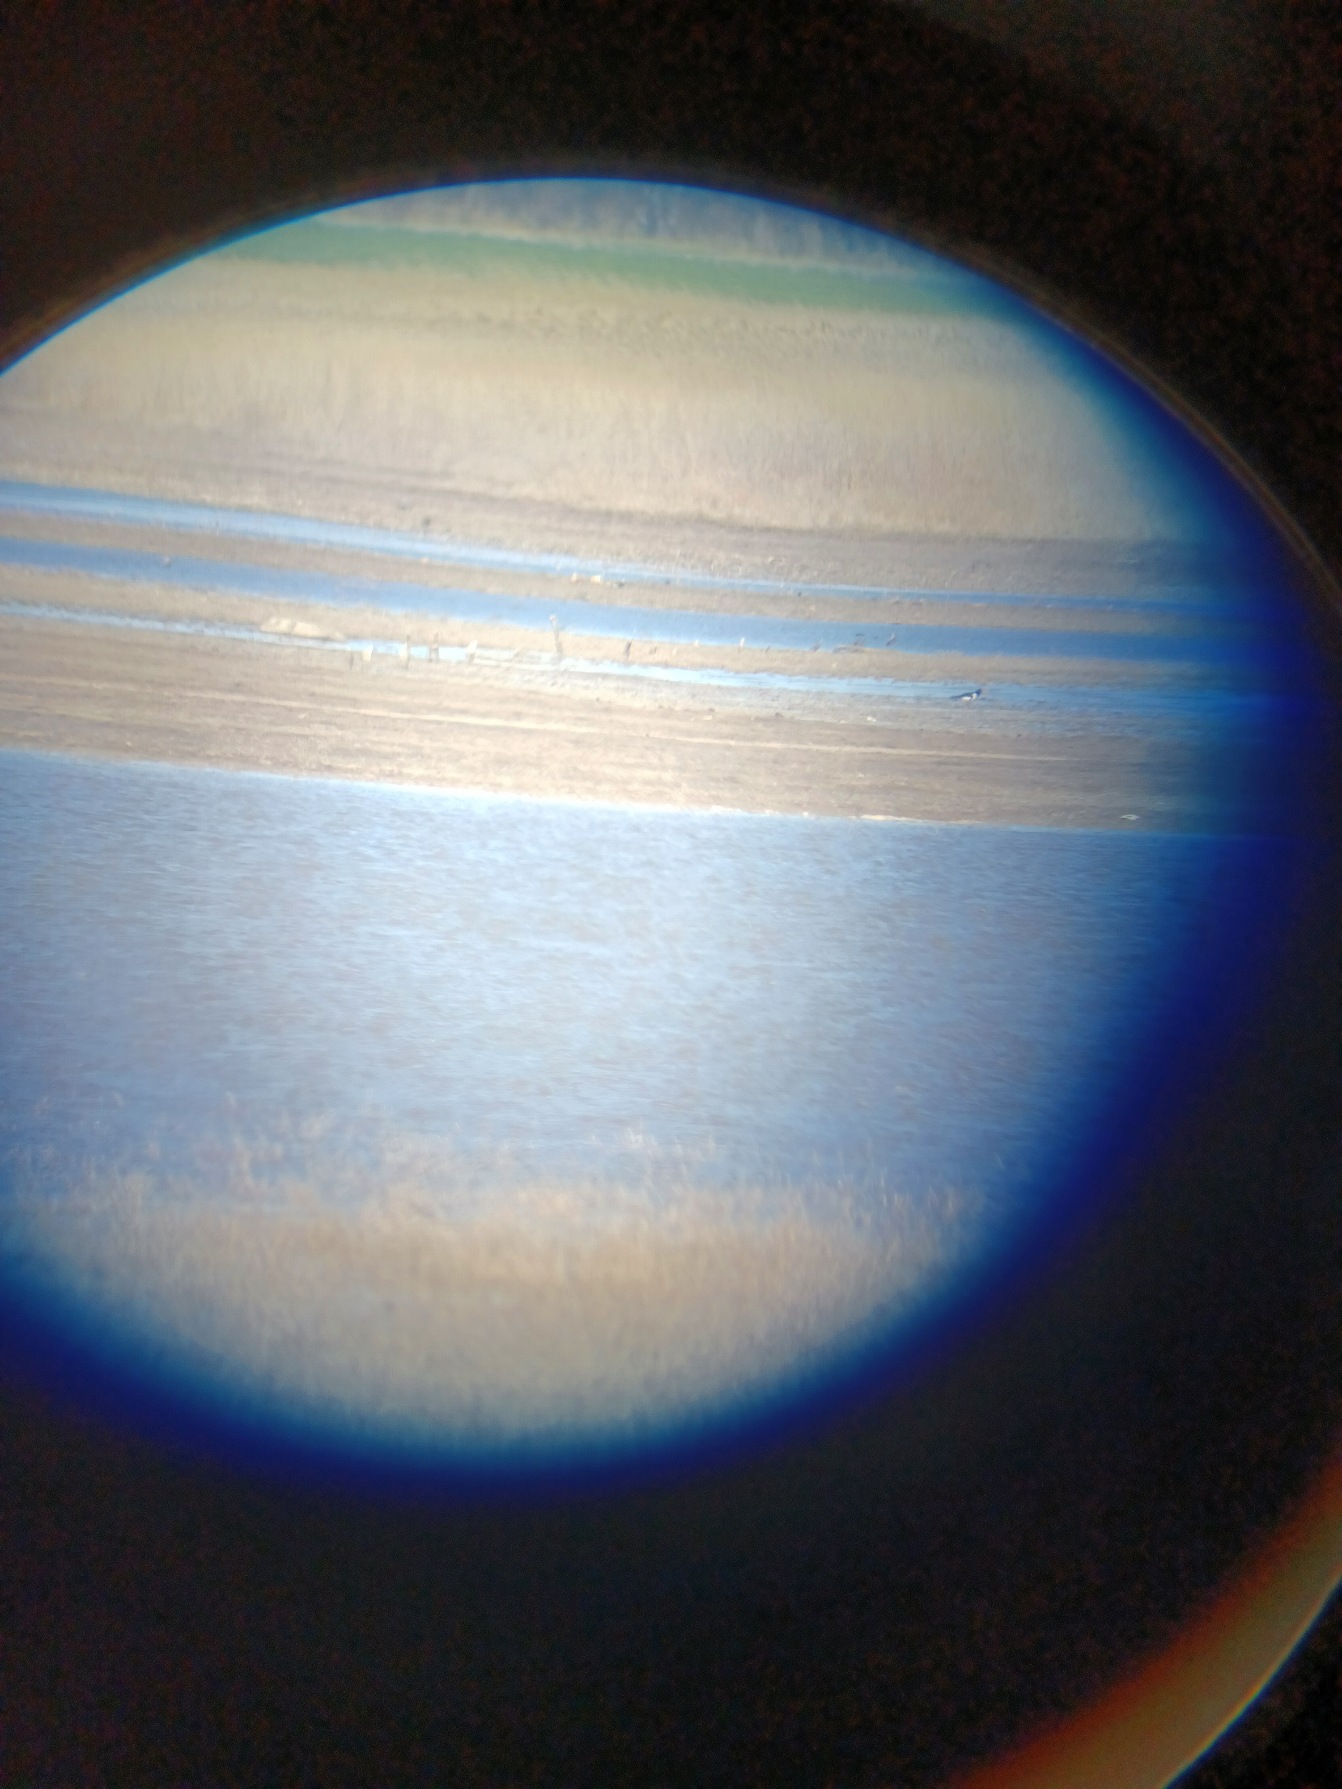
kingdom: Animalia
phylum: Chordata
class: Aves
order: Charadriiformes
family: Haematopodidae
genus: Haematopus
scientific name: Haematopus ostralegus
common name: Strandskade
